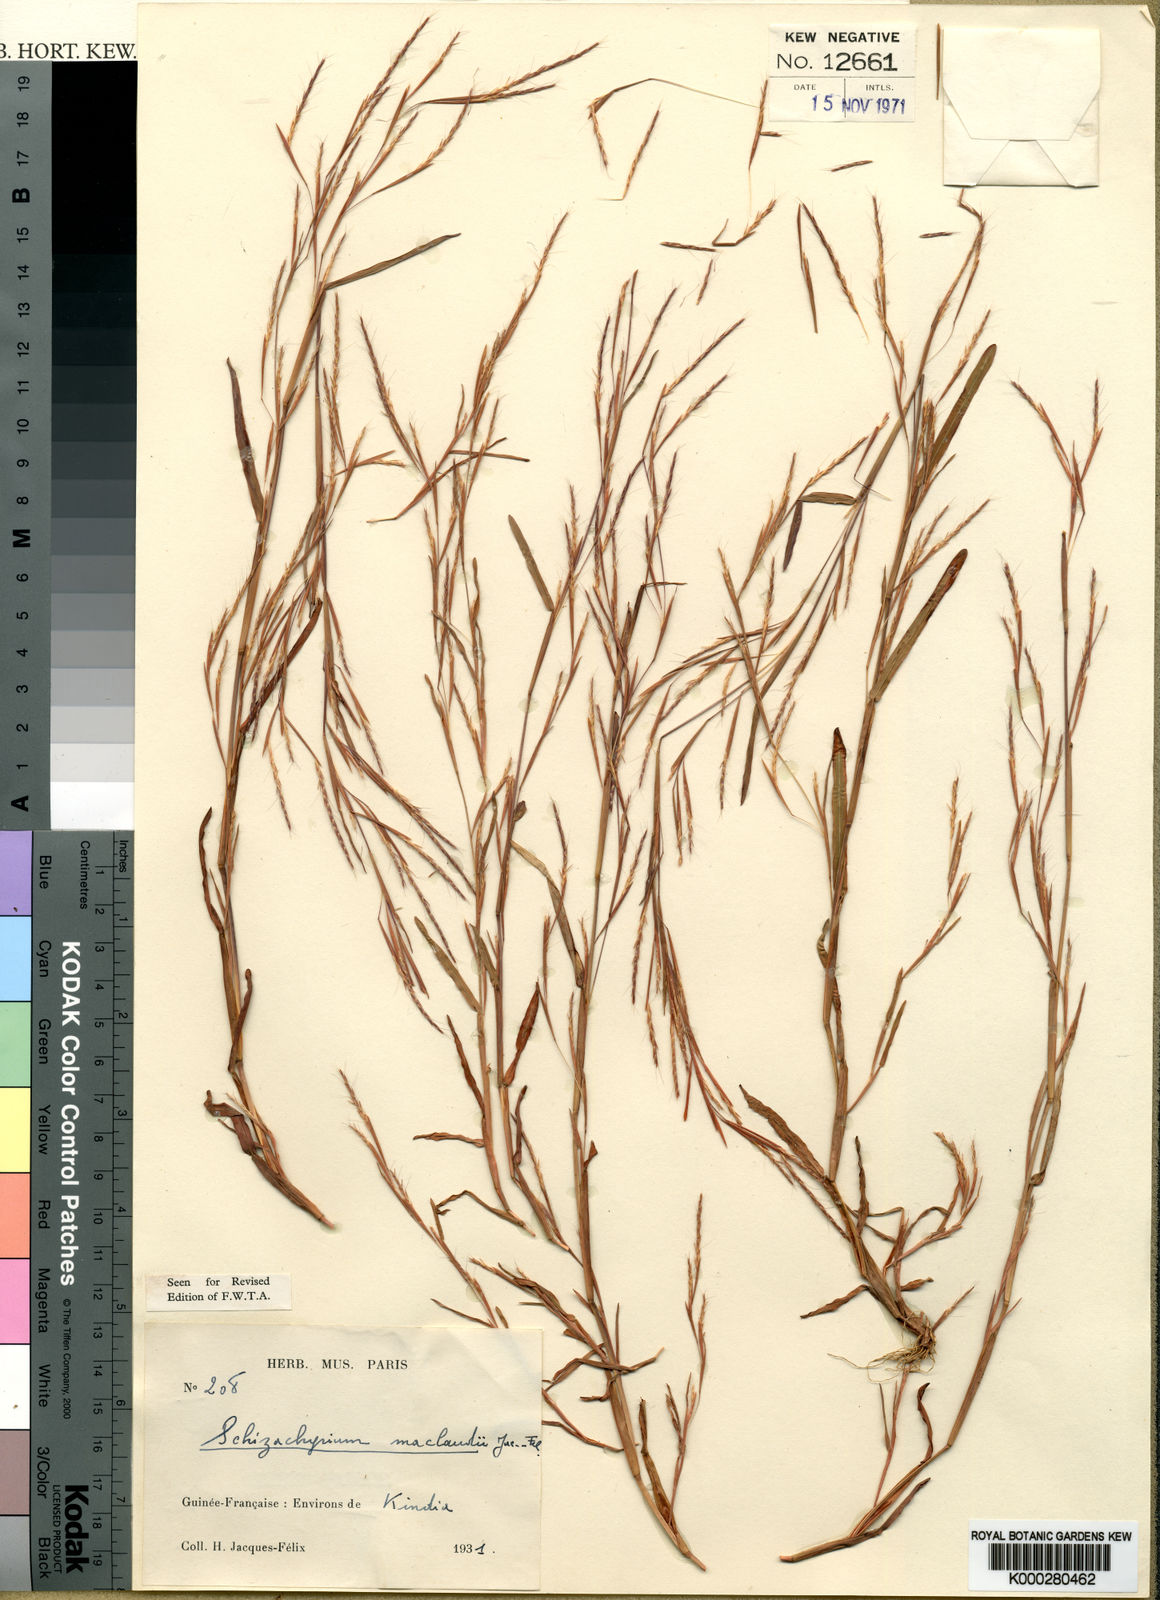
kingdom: Plantae
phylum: Tracheophyta
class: Liliopsida
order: Poales
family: Poaceae
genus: Schizachyrium
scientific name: Schizachyrium
